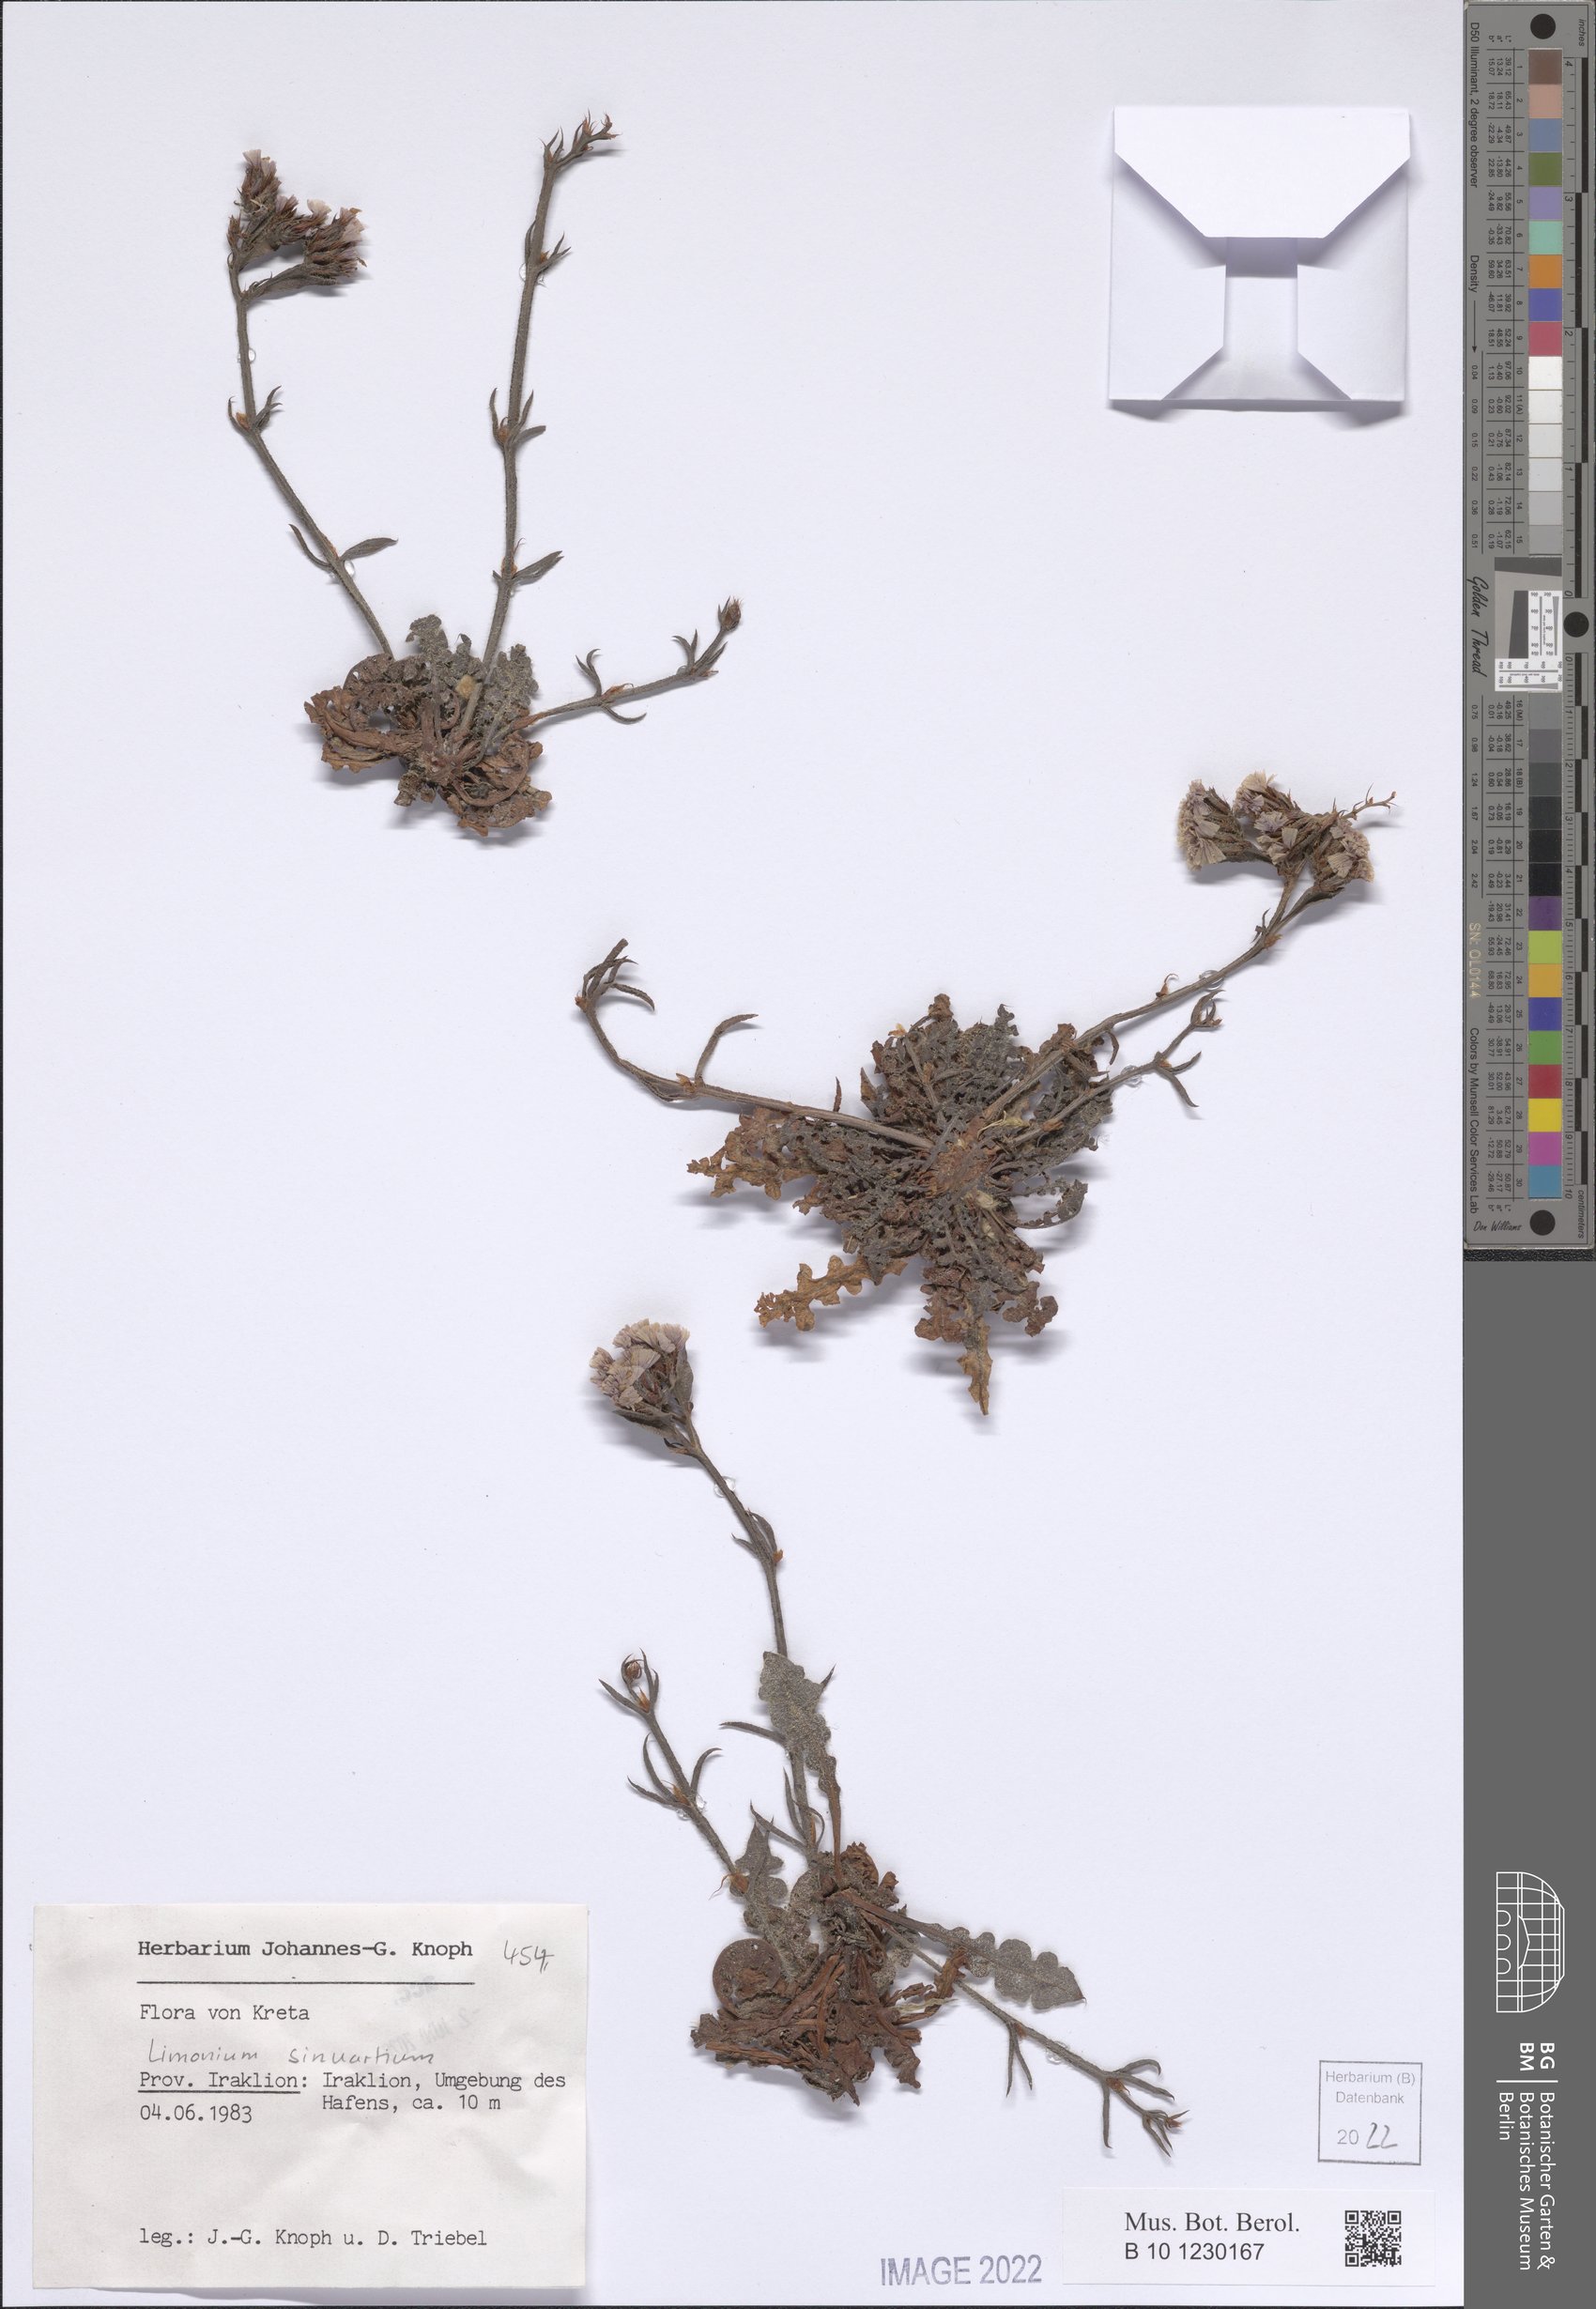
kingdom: Plantae
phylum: Tracheophyta
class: Magnoliopsida
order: Caryophyllales
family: Plumbaginaceae
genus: Limonium
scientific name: Limonium sinuatum
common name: Statice
